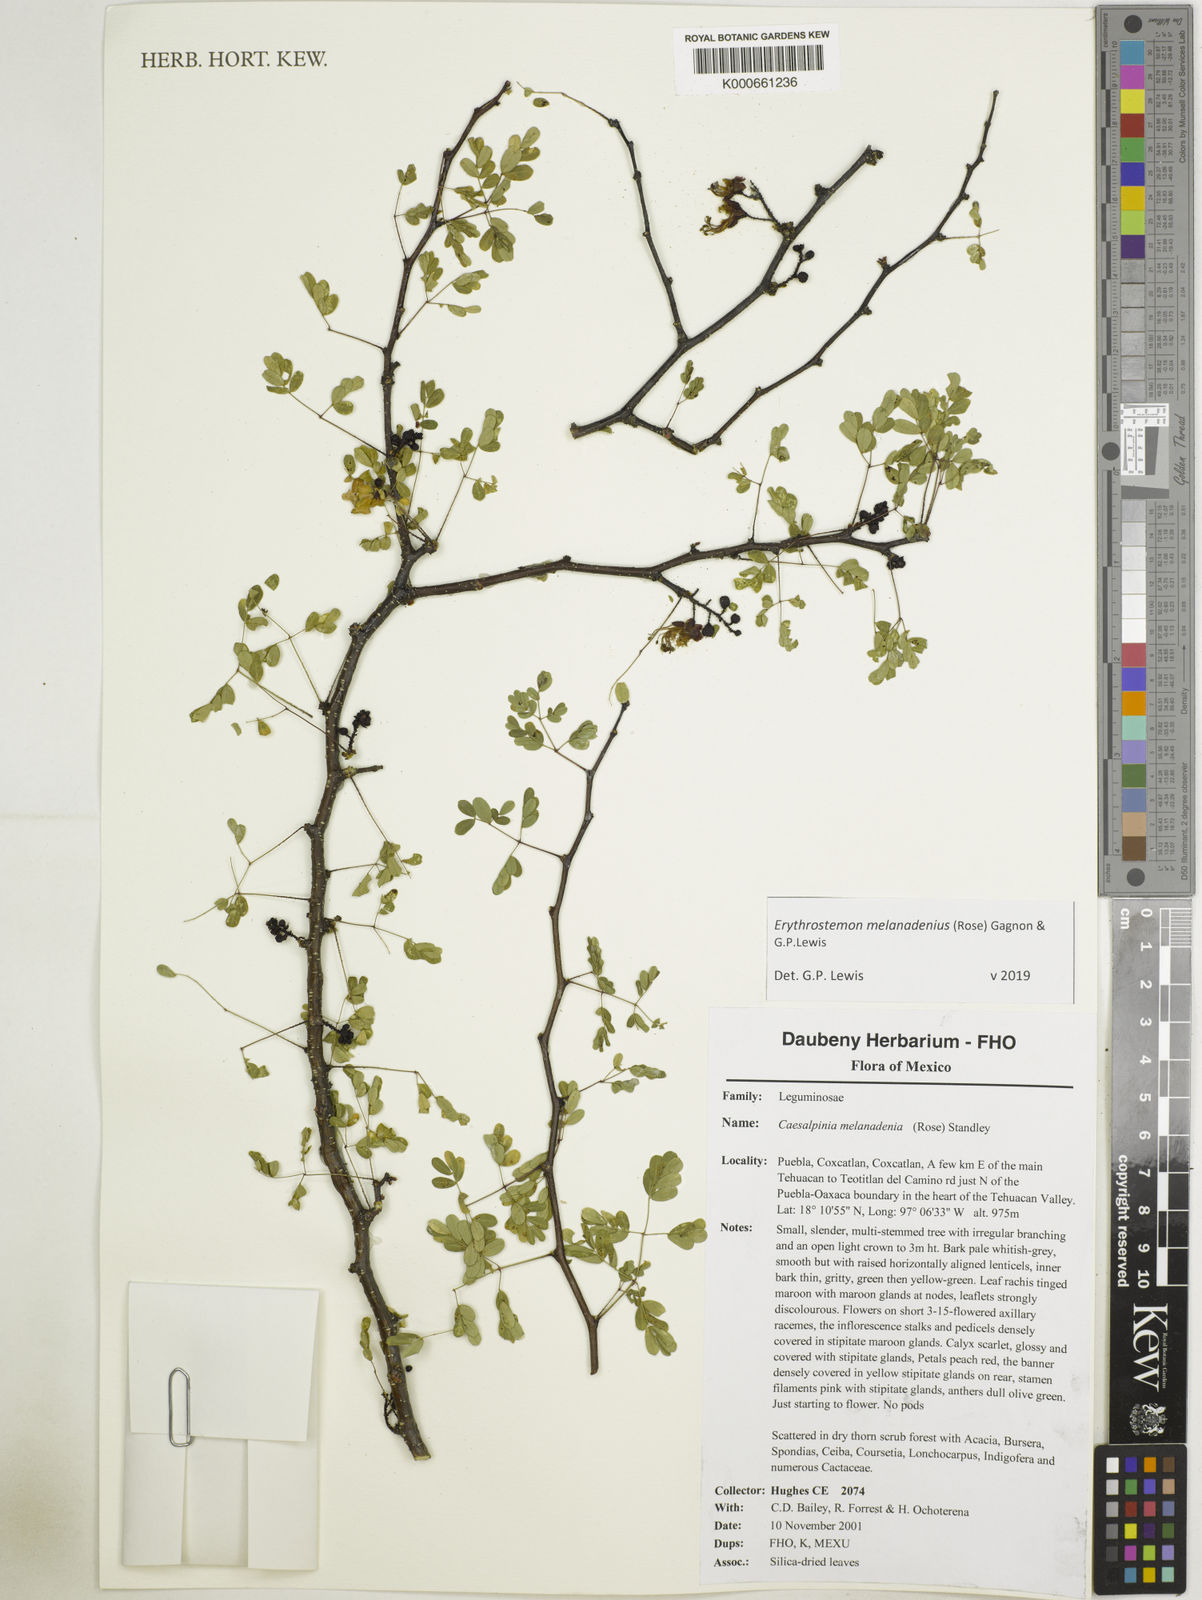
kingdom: Plantae
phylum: Tracheophyta
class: Magnoliopsida
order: Fabales
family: Fabaceae
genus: Erythrostemon
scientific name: Erythrostemon melanadenius
